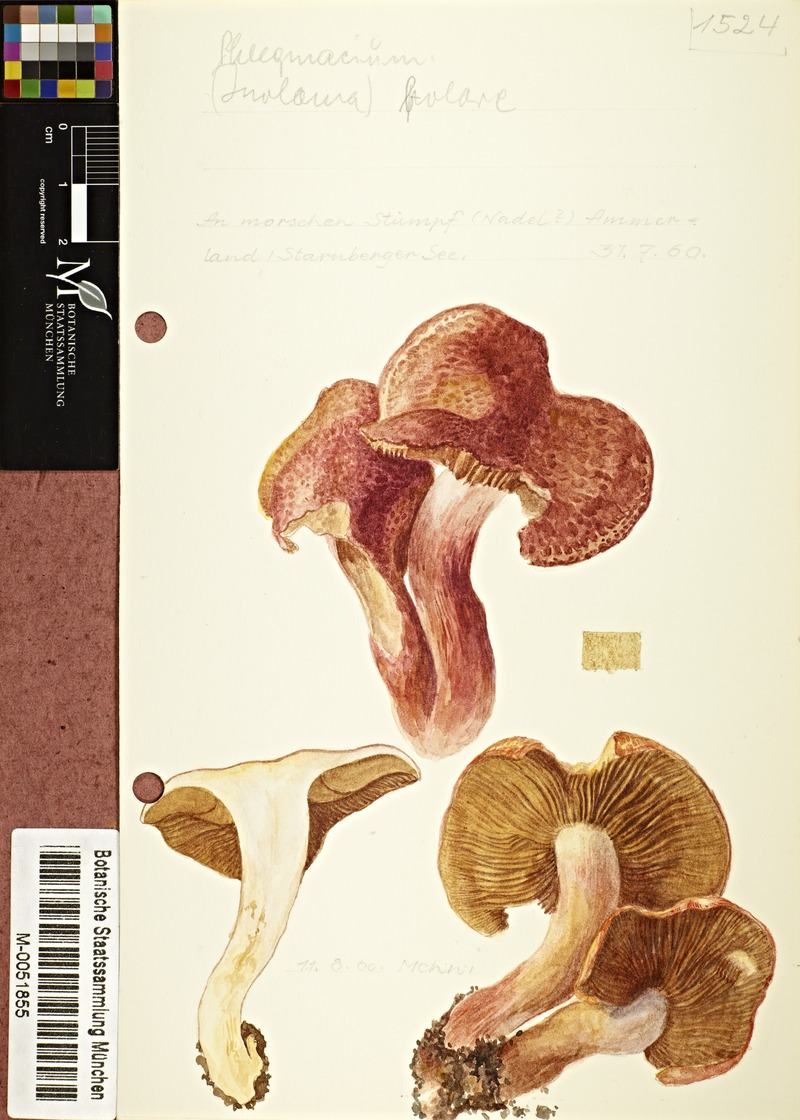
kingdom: Fungi
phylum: Basidiomycota
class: Agaricomycetes
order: Agaricales
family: Cortinariaceae
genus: Cortinarius
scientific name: Cortinarius bolaris
